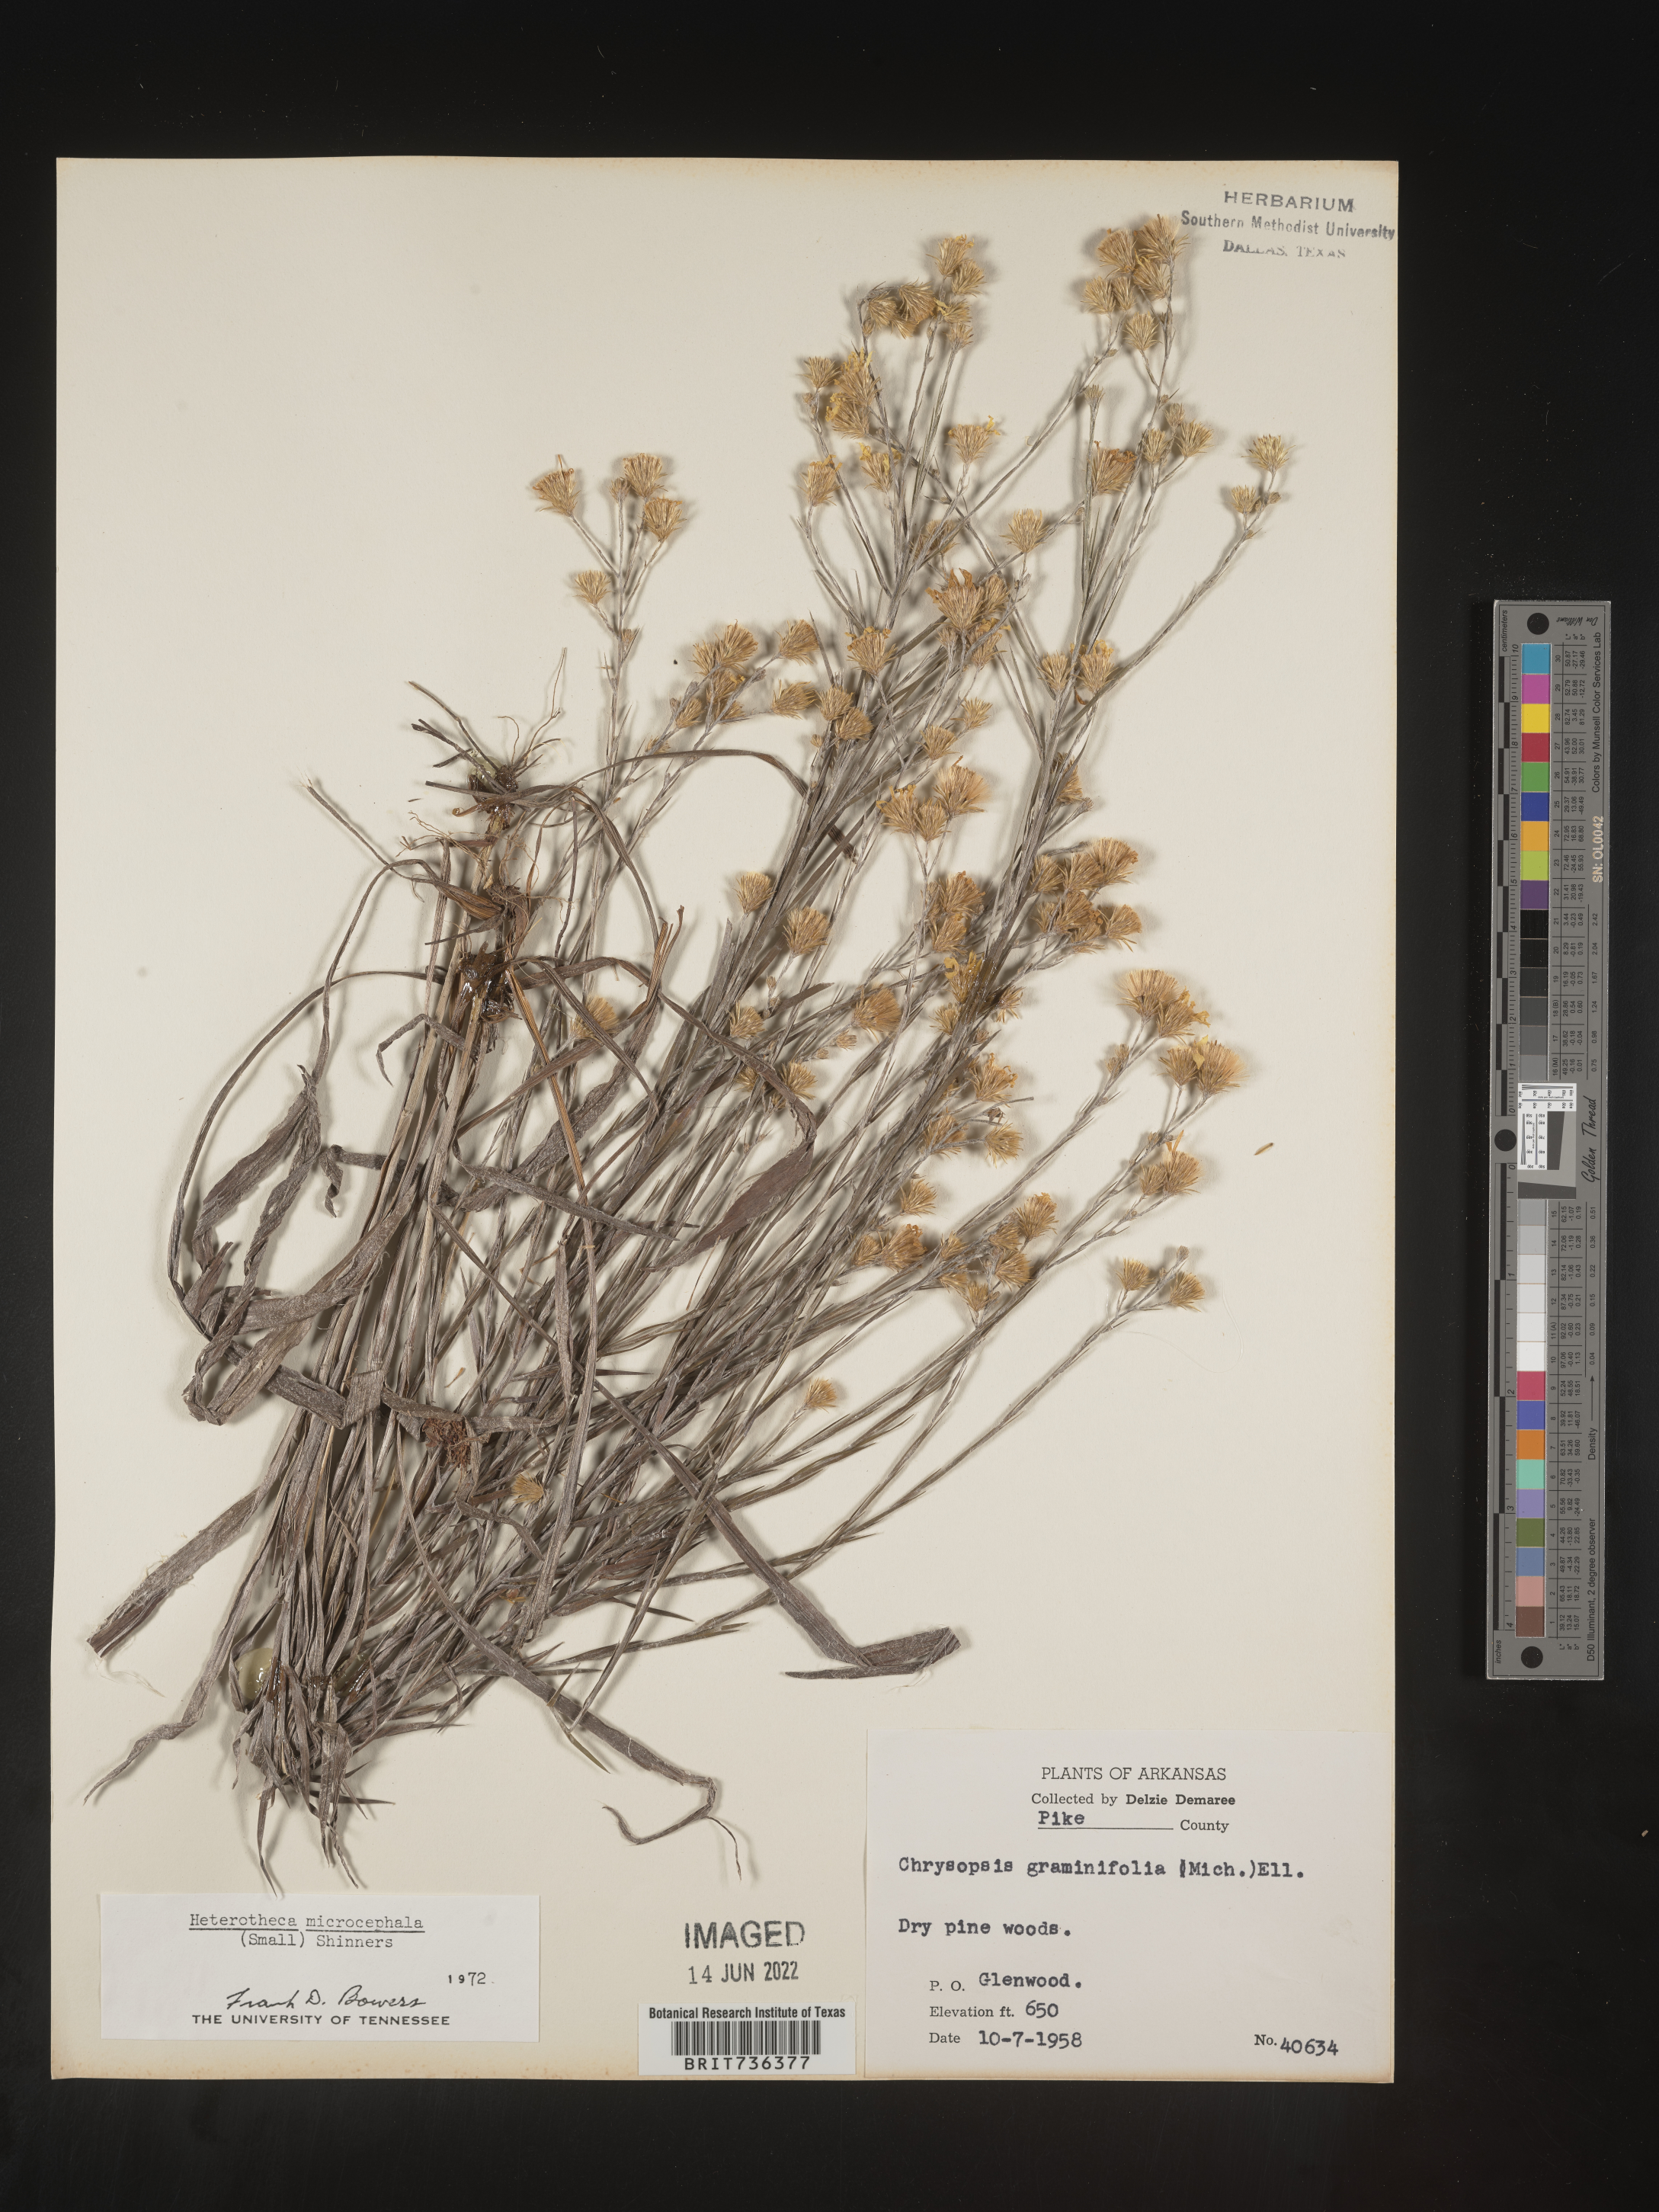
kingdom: Plantae
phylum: Tracheophyta
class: Magnoliopsida
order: Asterales
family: Asteraceae
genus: Pityopsis
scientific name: Pityopsis tenuifolia
